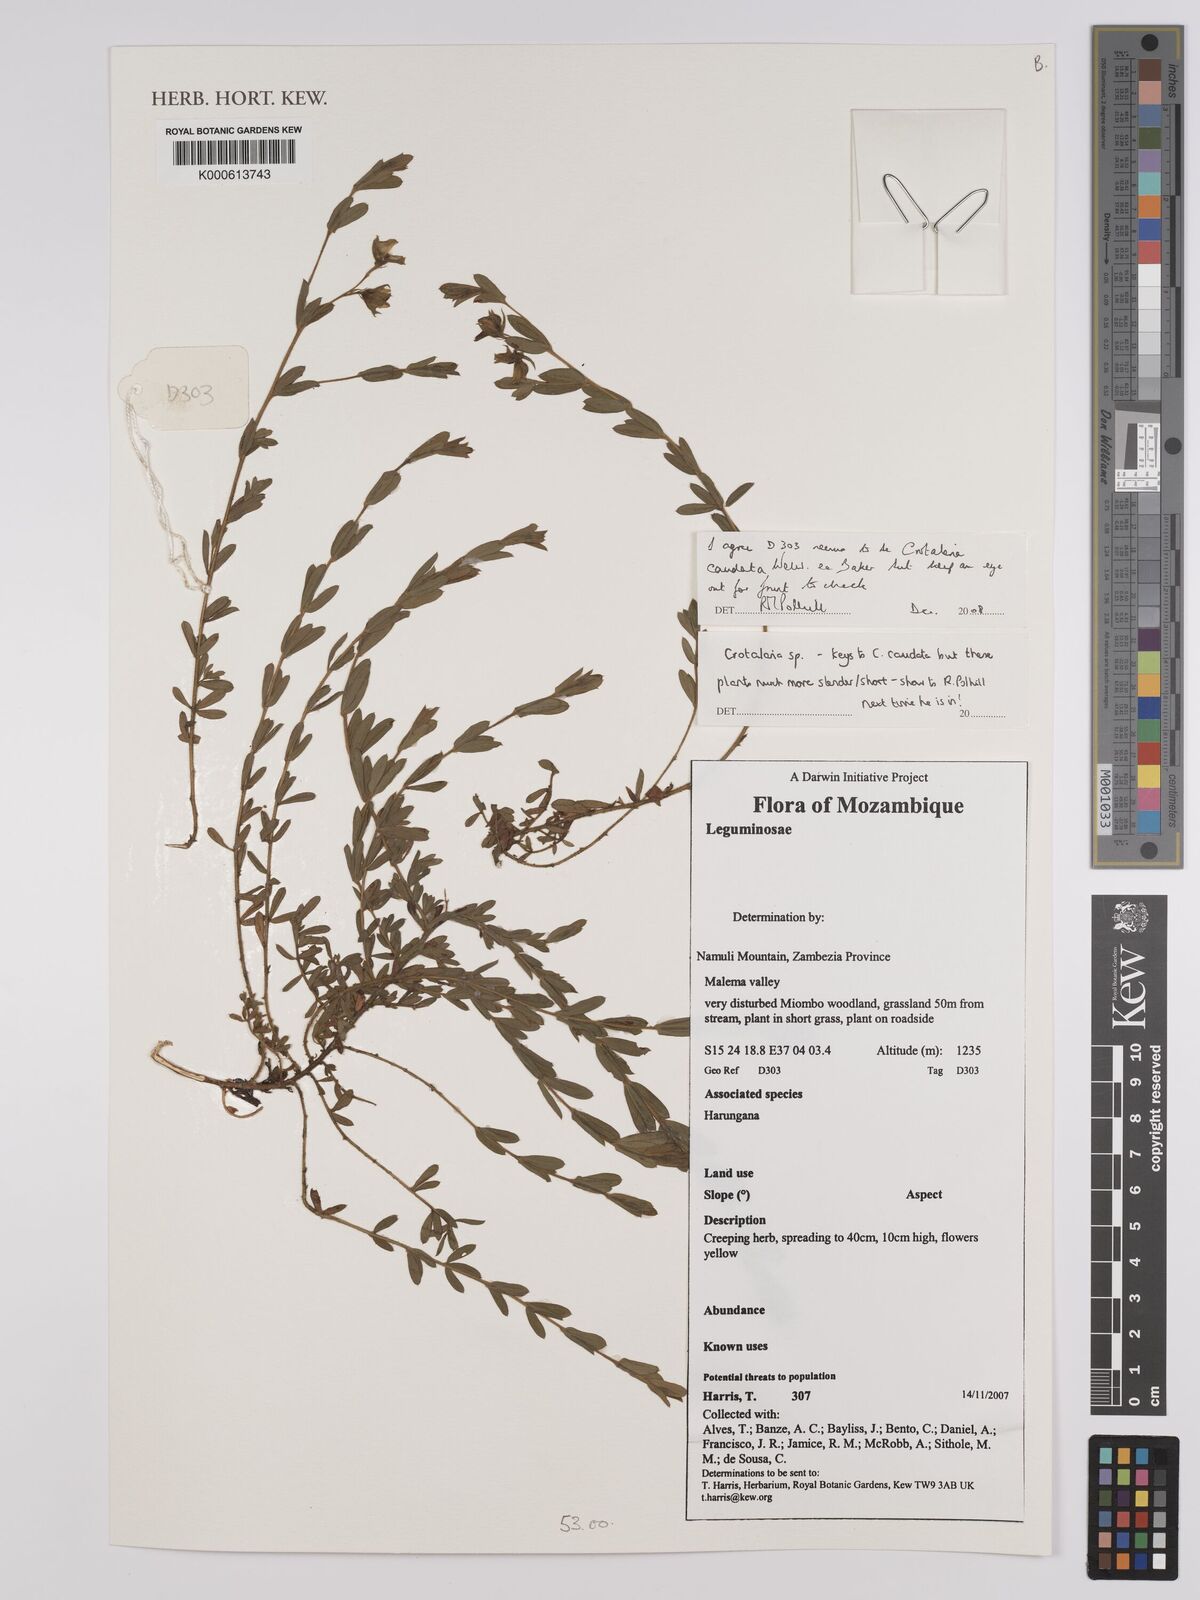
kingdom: Plantae
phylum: Tracheophyta
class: Magnoliopsida
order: Fabales
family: Fabaceae
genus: Crotalaria
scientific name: Crotalaria
